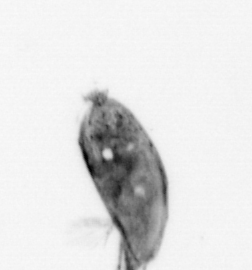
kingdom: Animalia
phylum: Arthropoda
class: Maxillopoda
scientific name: Maxillopoda
